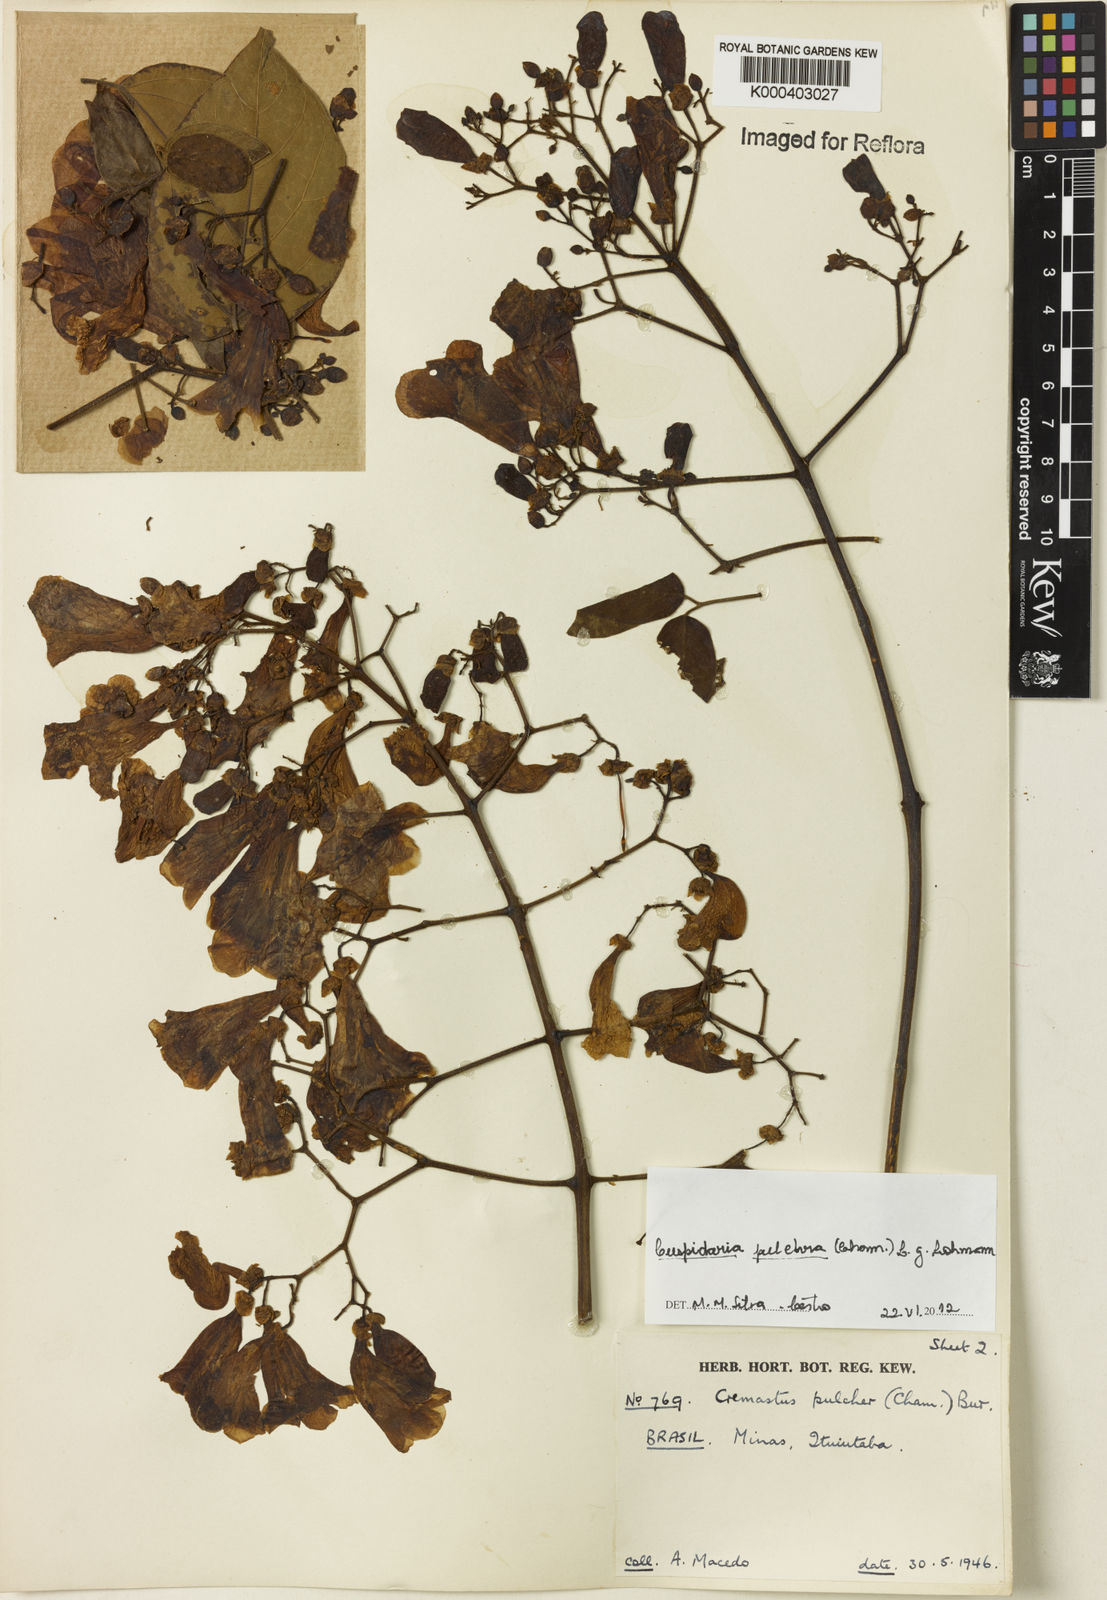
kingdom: Plantae
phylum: Tracheophyta
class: Magnoliopsida
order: Lamiales
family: Bignoniaceae
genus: Cuspidaria
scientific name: Cuspidaria pulchra
